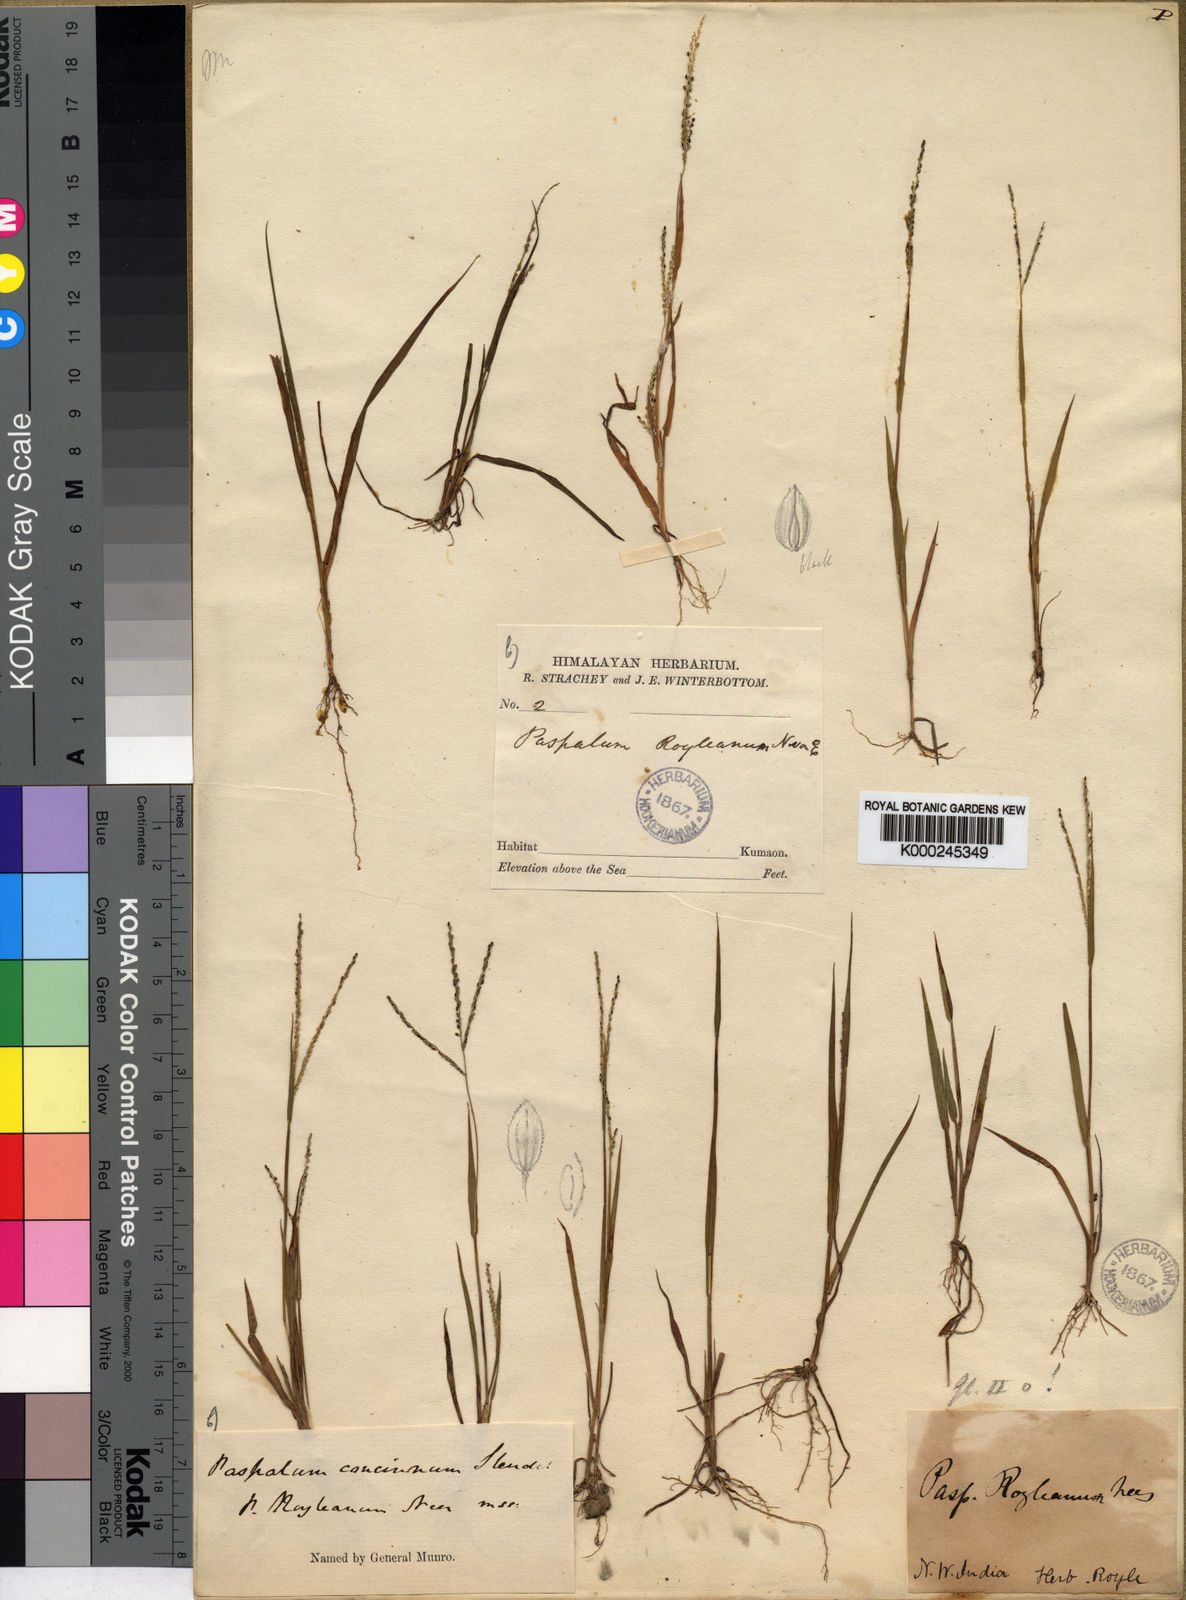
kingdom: Plantae
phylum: Tracheophyta
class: Liliopsida
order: Poales
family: Poaceae
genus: Digitaria
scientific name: Digitaria
